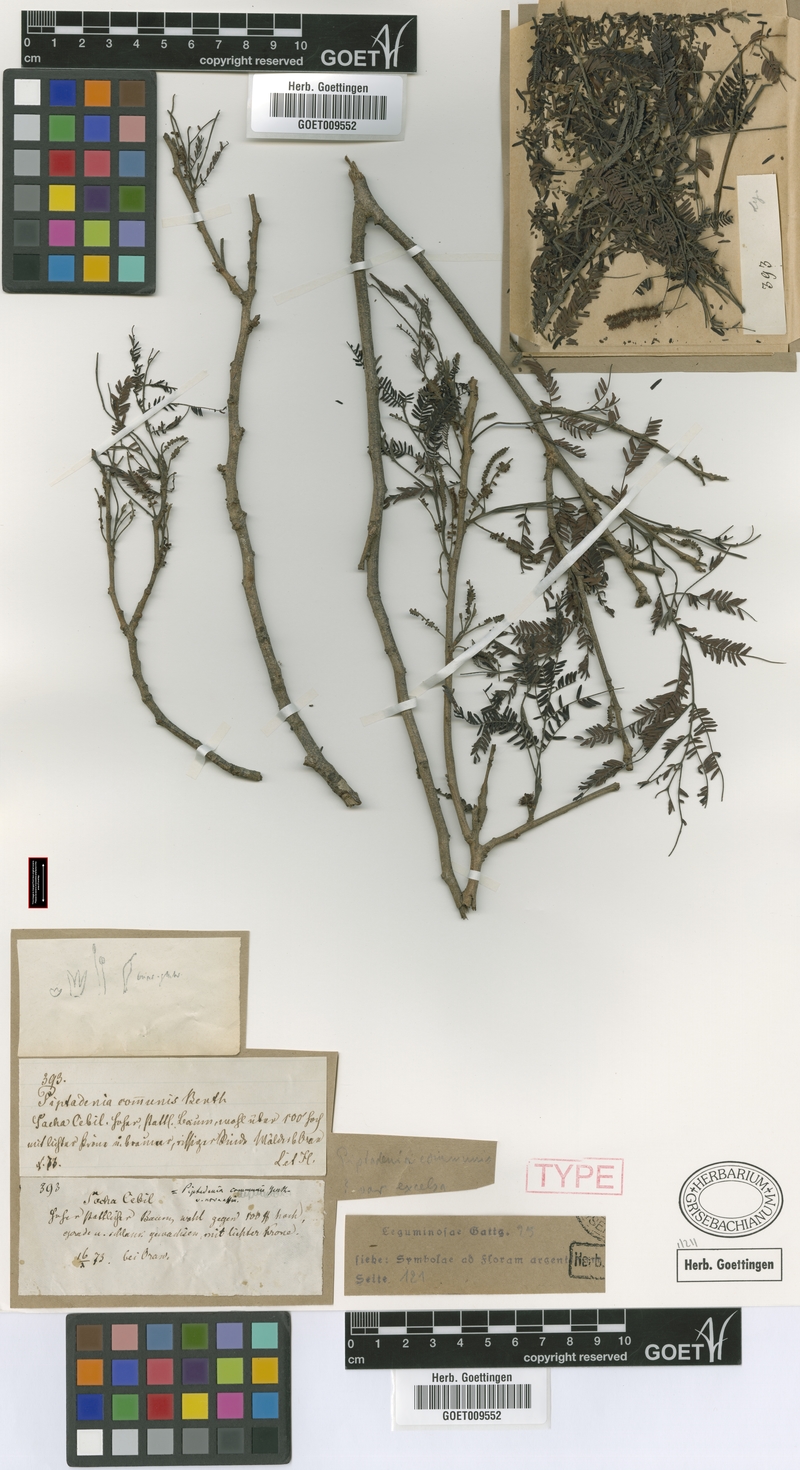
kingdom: Plantae
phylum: Tracheophyta
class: Magnoliopsida
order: Fabales
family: Fabaceae
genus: Parapiptadenia
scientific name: Parapiptadenia excelsa
